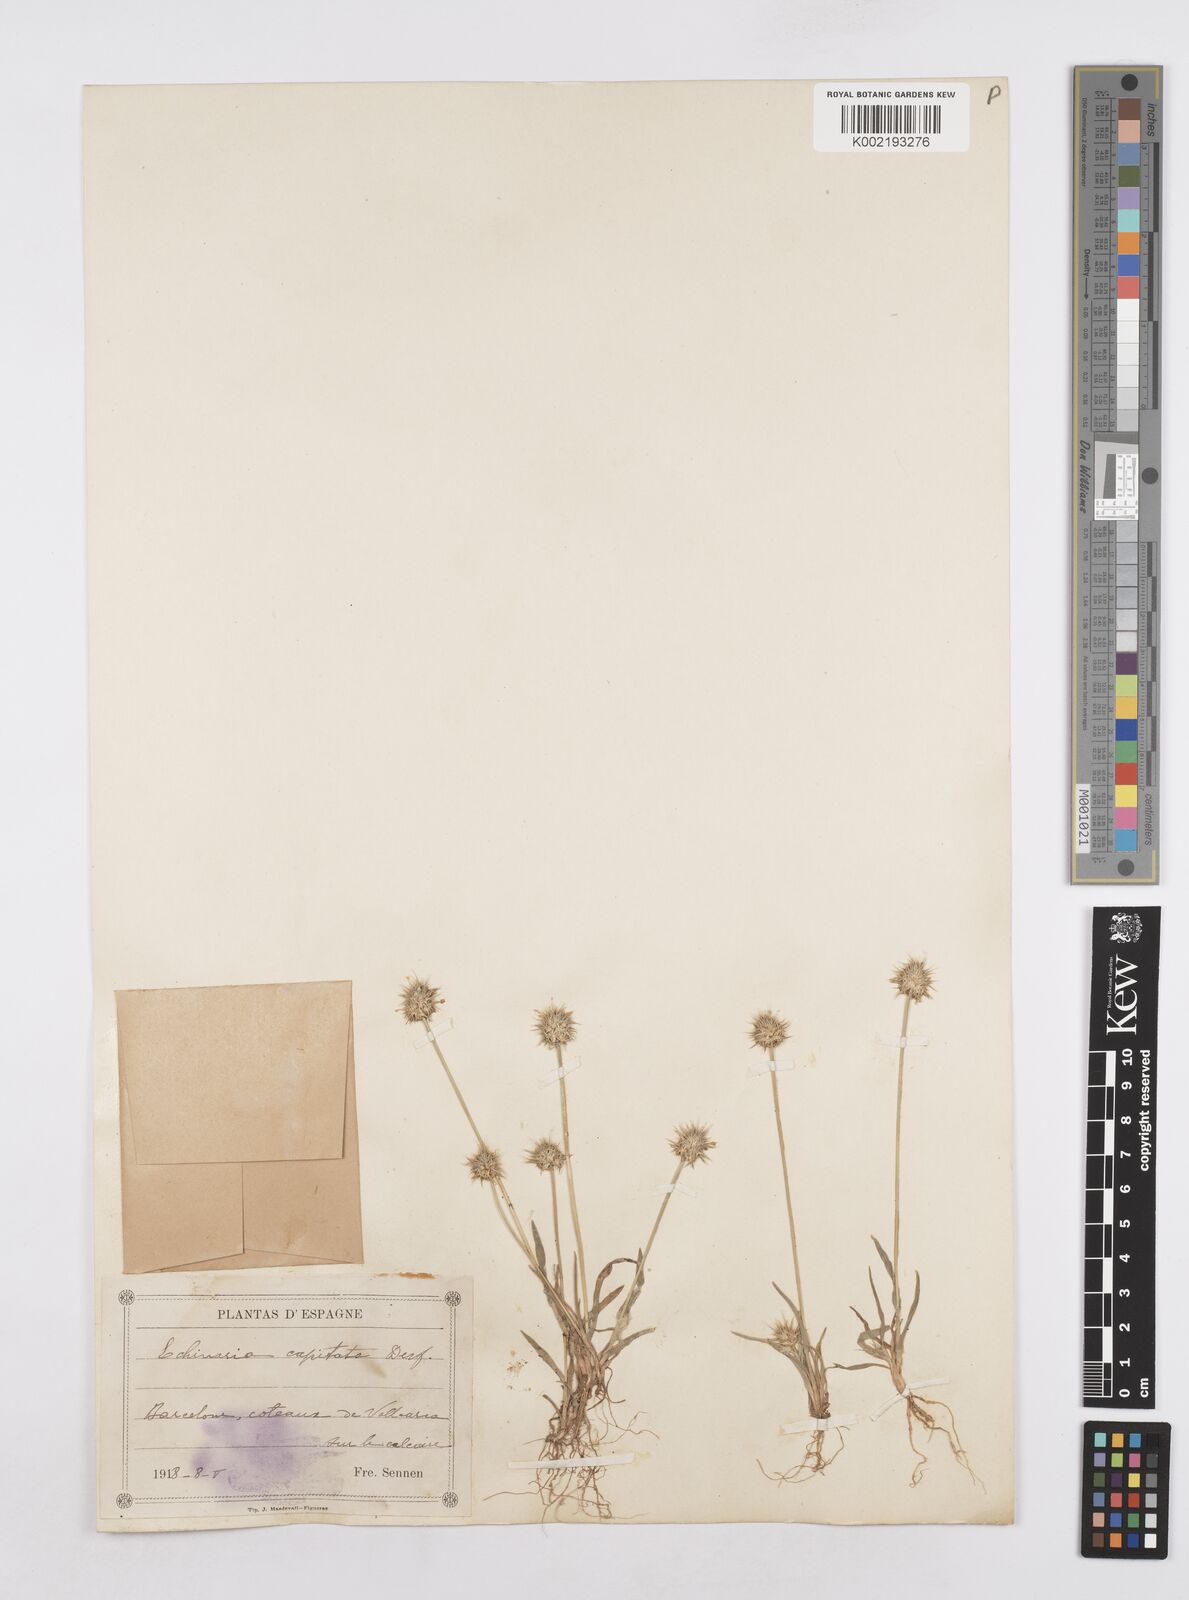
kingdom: Plantae
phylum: Tracheophyta
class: Liliopsida
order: Poales
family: Poaceae
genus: Echinaria
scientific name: Echinaria capitata
